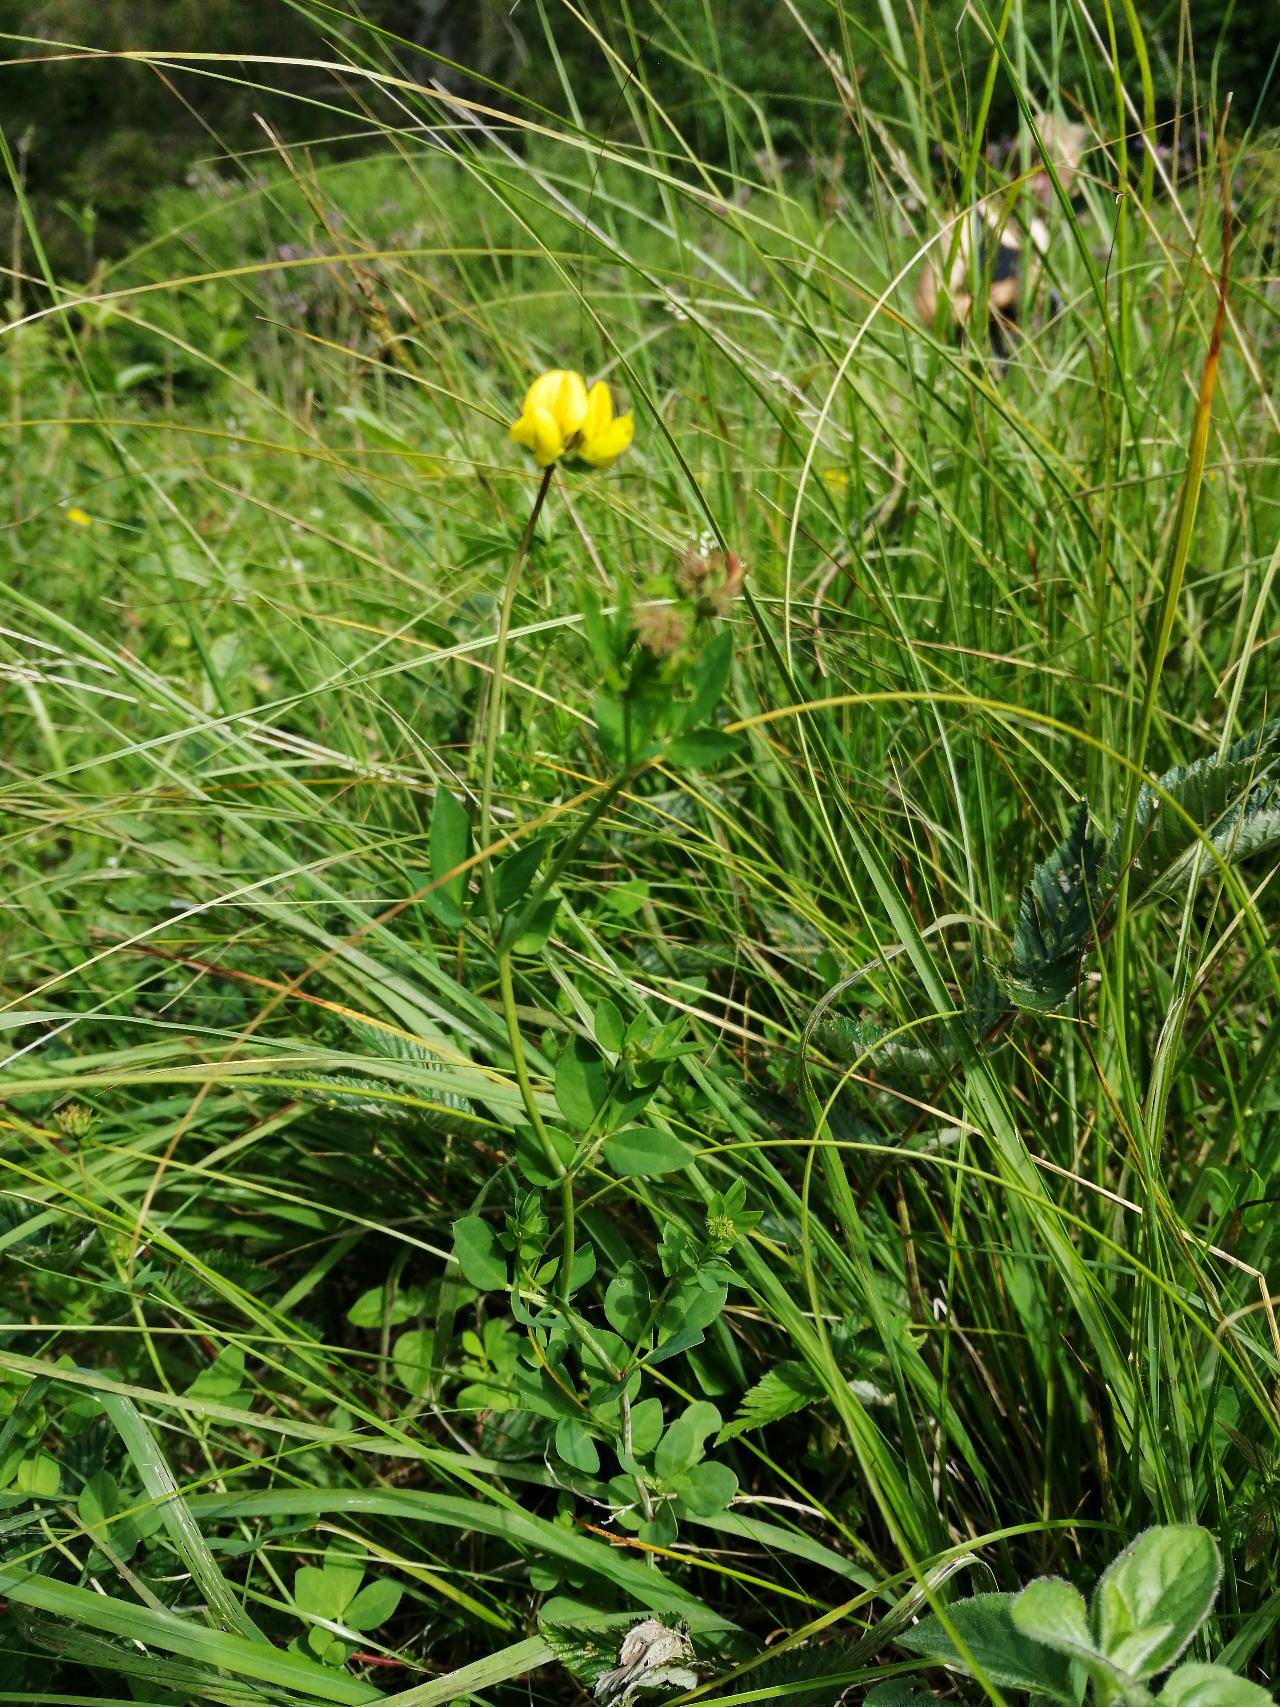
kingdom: Plantae
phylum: Tracheophyta
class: Magnoliopsida
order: Fabales
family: Fabaceae
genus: Lotus
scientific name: Lotus pedunculatus
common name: Sump-kællingetand
